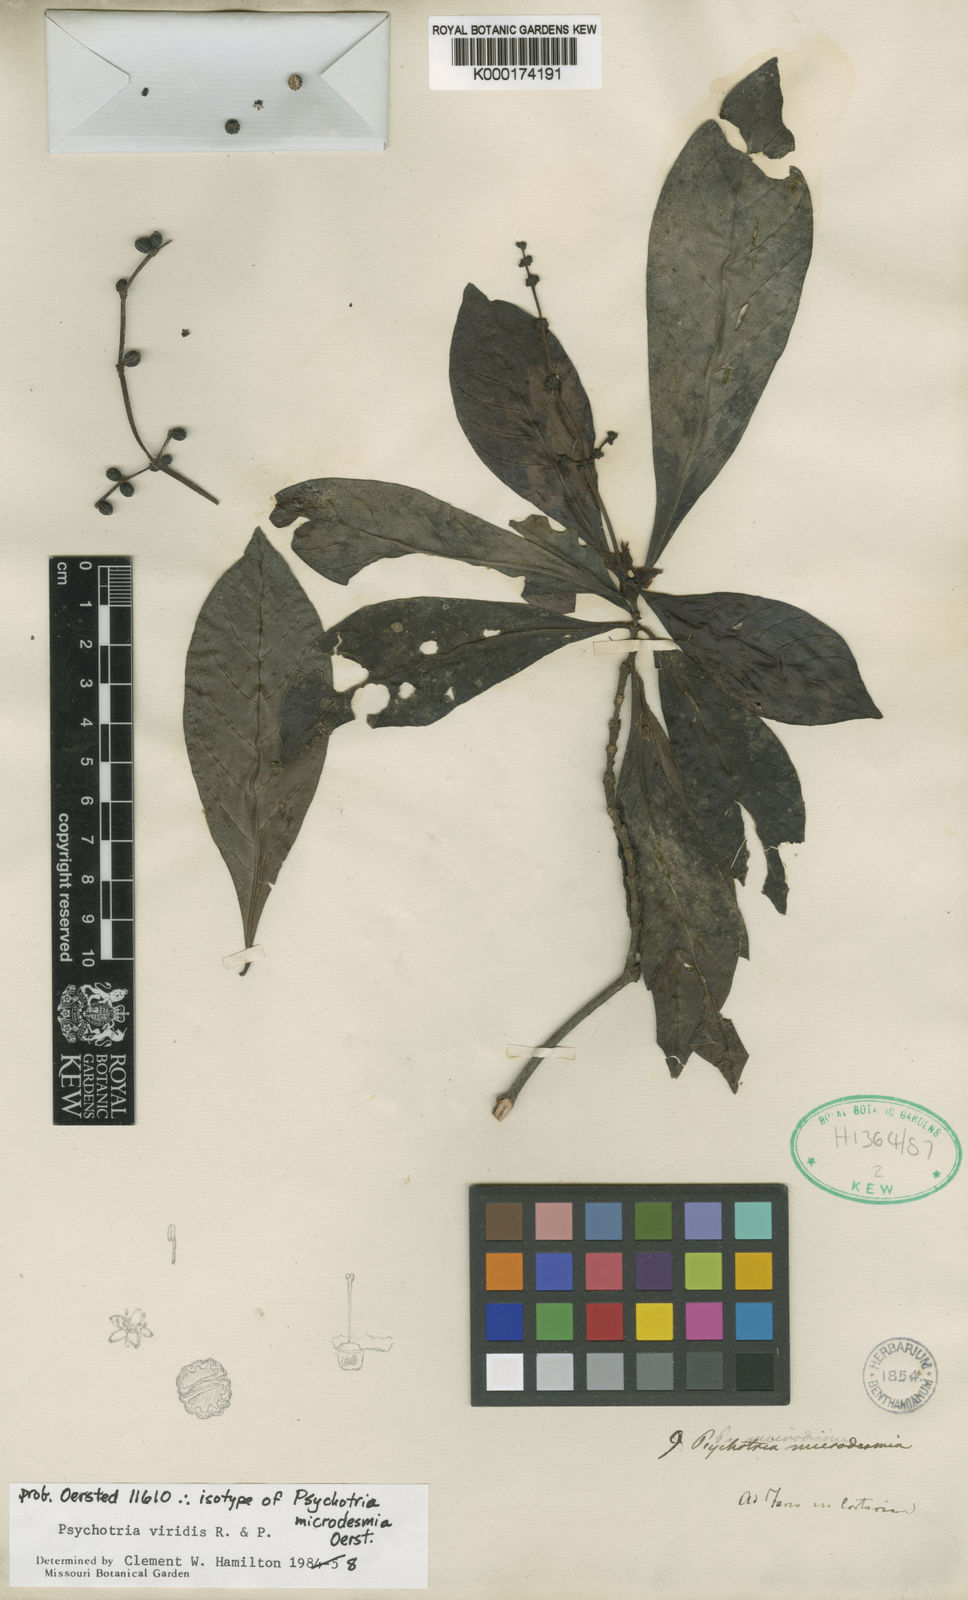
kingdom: Plantae
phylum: Tracheophyta
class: Magnoliopsida
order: Gentianales
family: Rubiaceae
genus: Psychotria
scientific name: Psychotria viridis
